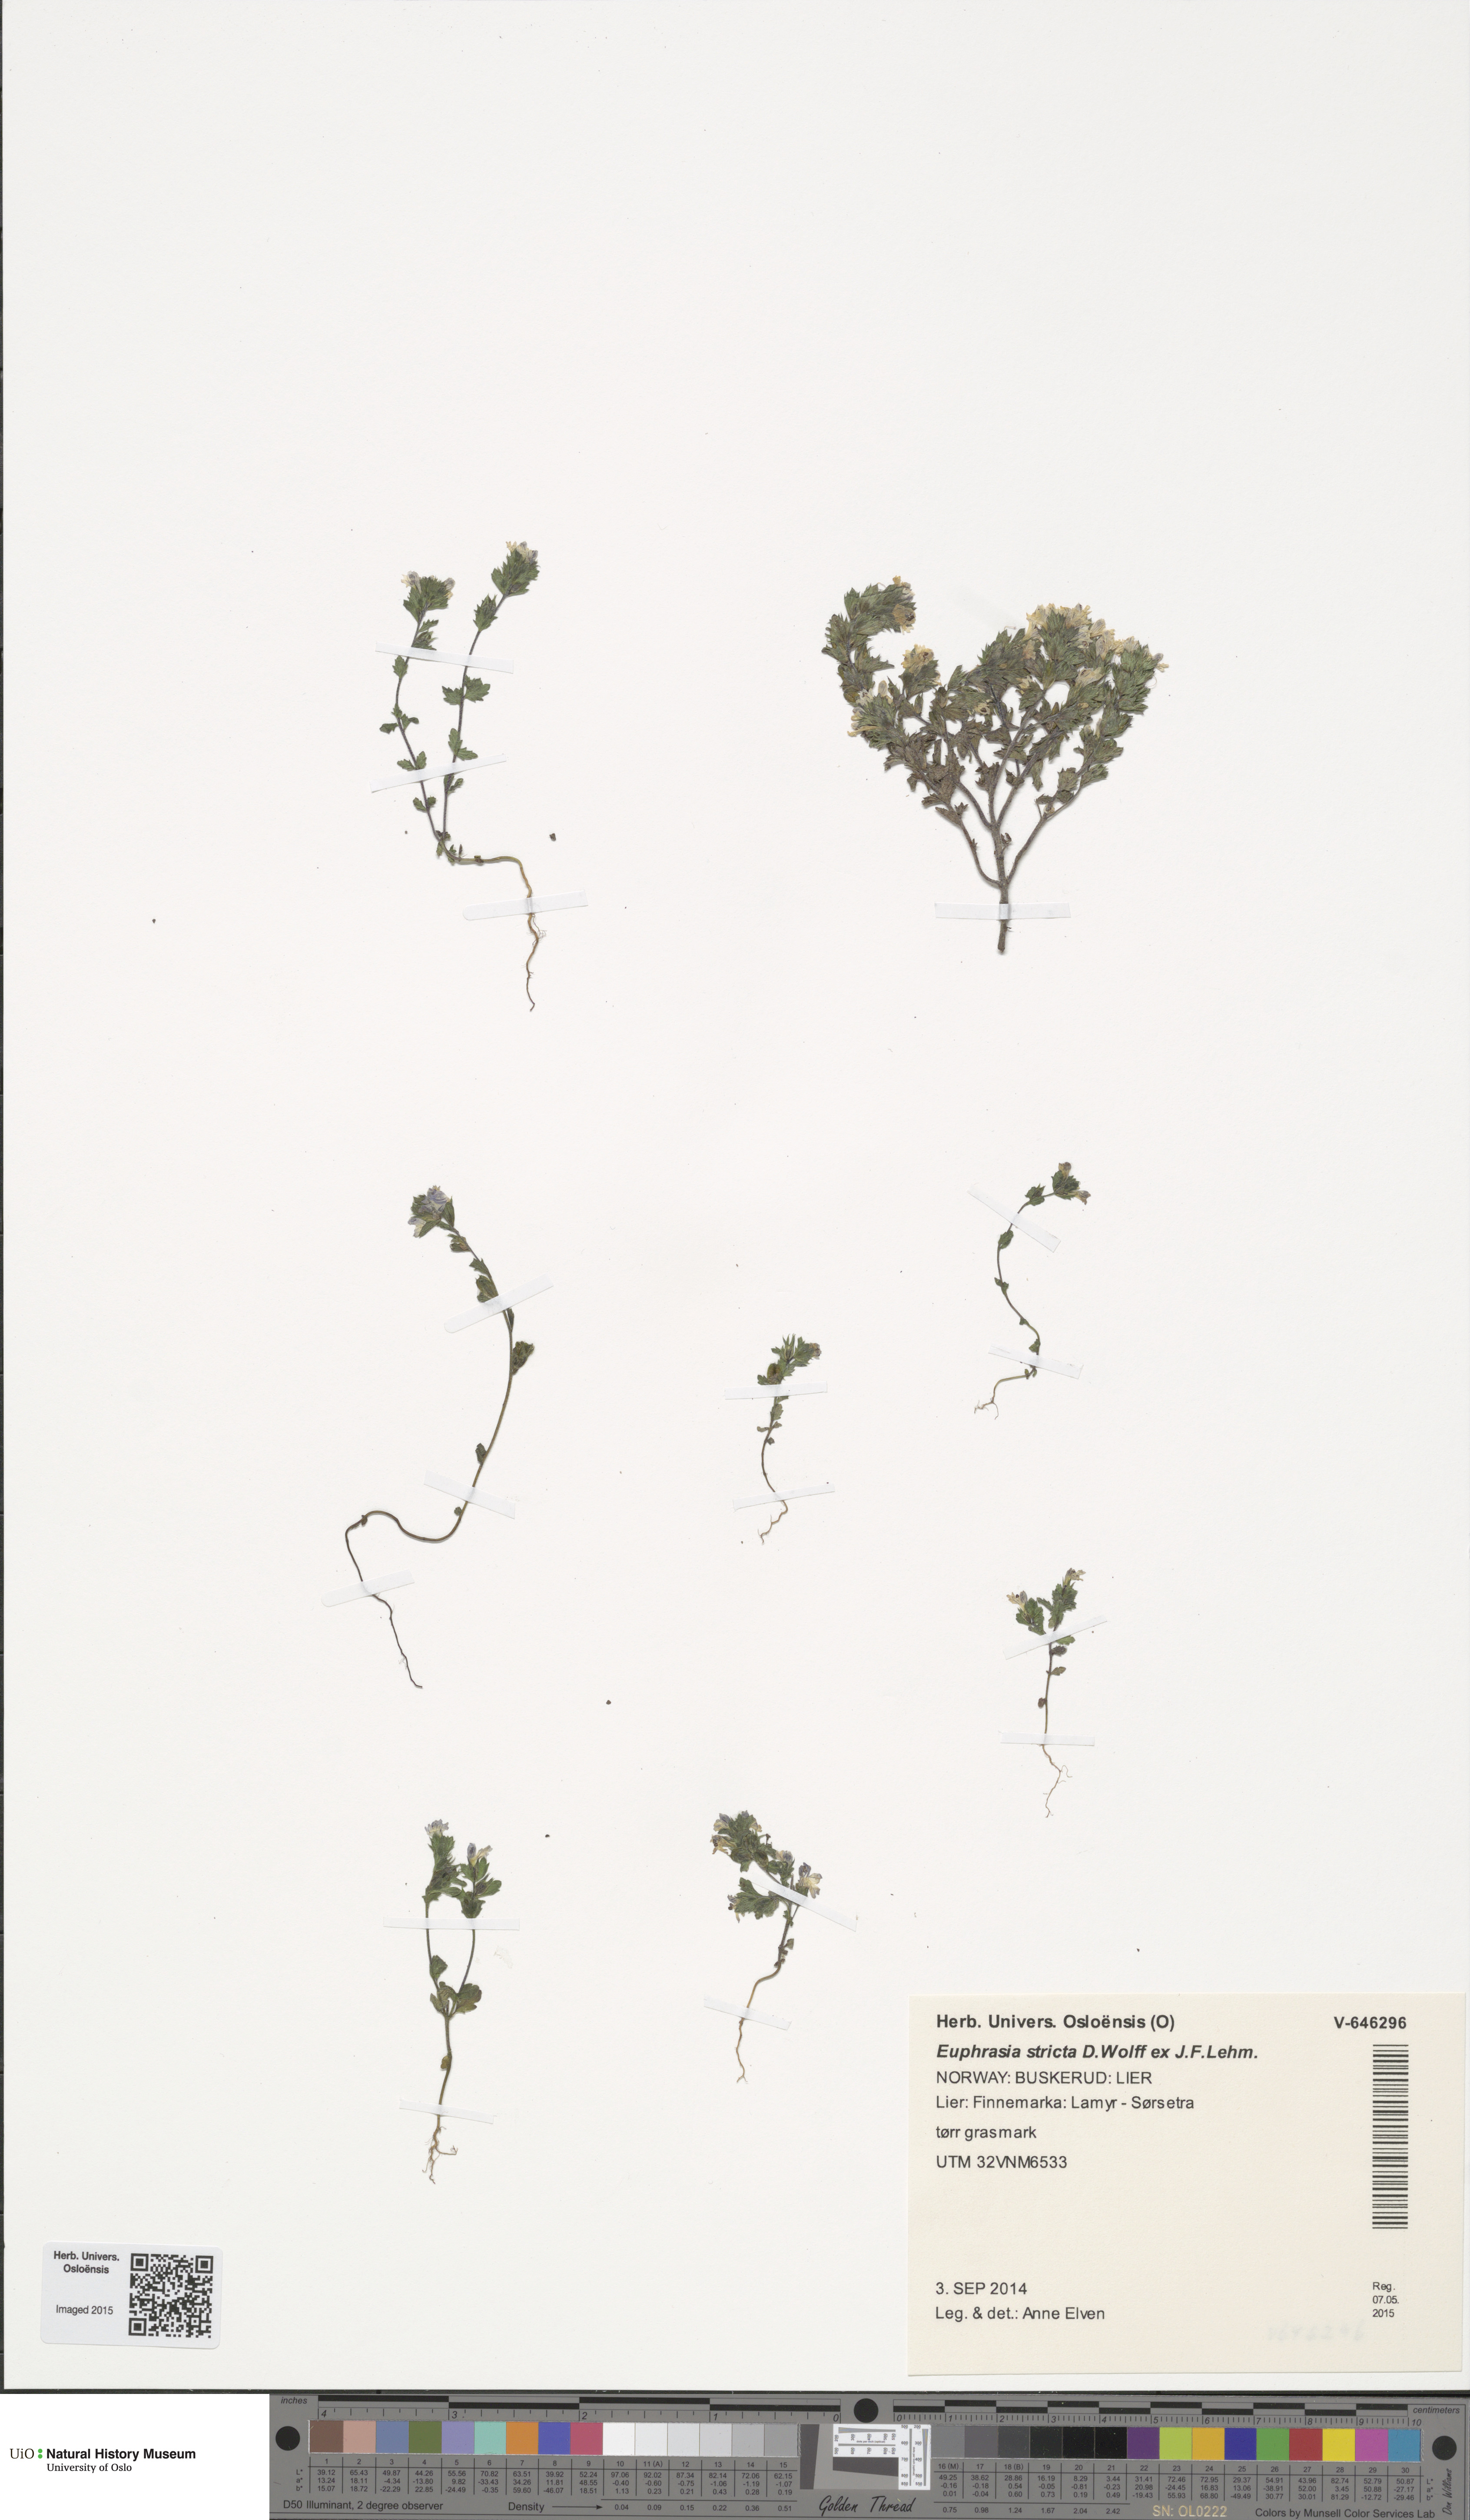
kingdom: Plantae
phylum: Tracheophyta
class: Magnoliopsida
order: Lamiales
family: Orobanchaceae
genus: Euphrasia
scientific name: Euphrasia stricta
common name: Drug eyebright
